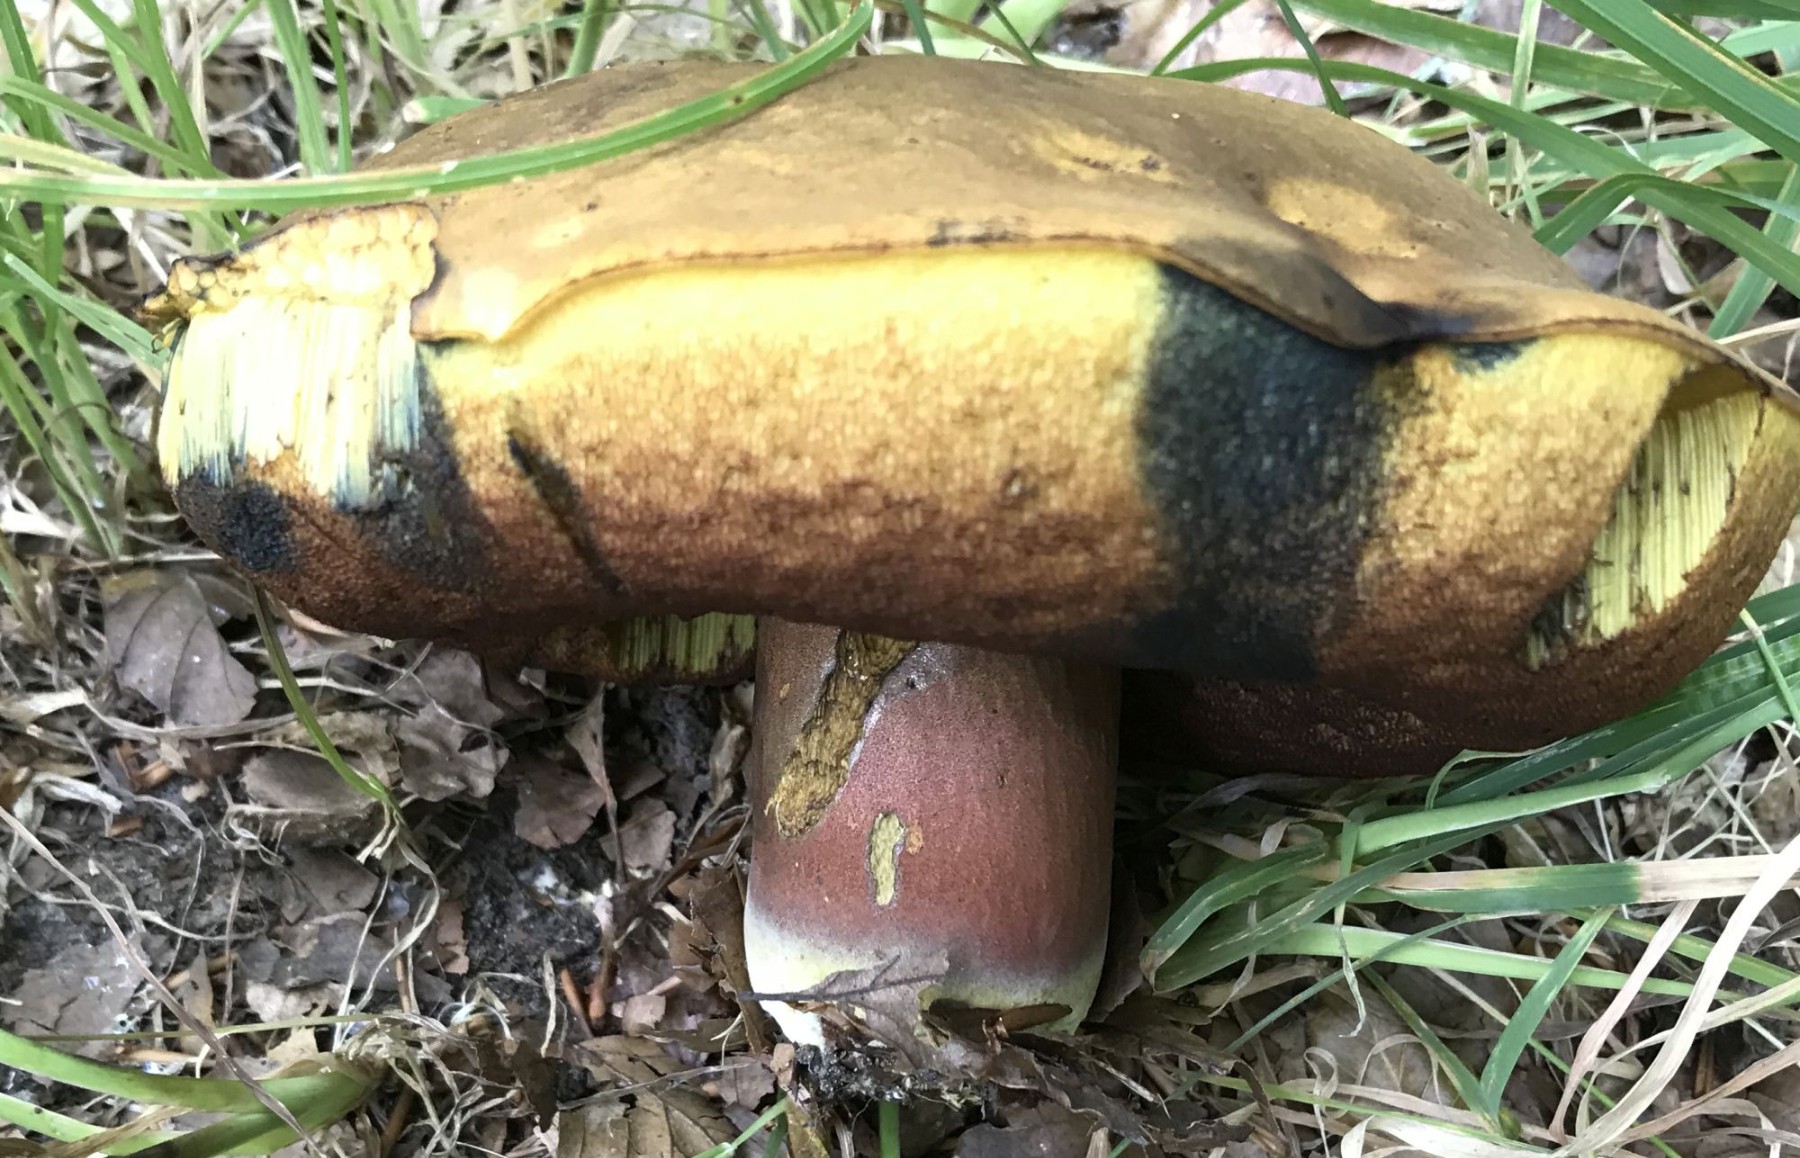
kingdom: Fungi
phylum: Basidiomycota
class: Agaricomycetes
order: Boletales
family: Boletaceae
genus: Neoboletus
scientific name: Neoboletus erythropus
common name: punktstokket indigorørhat
